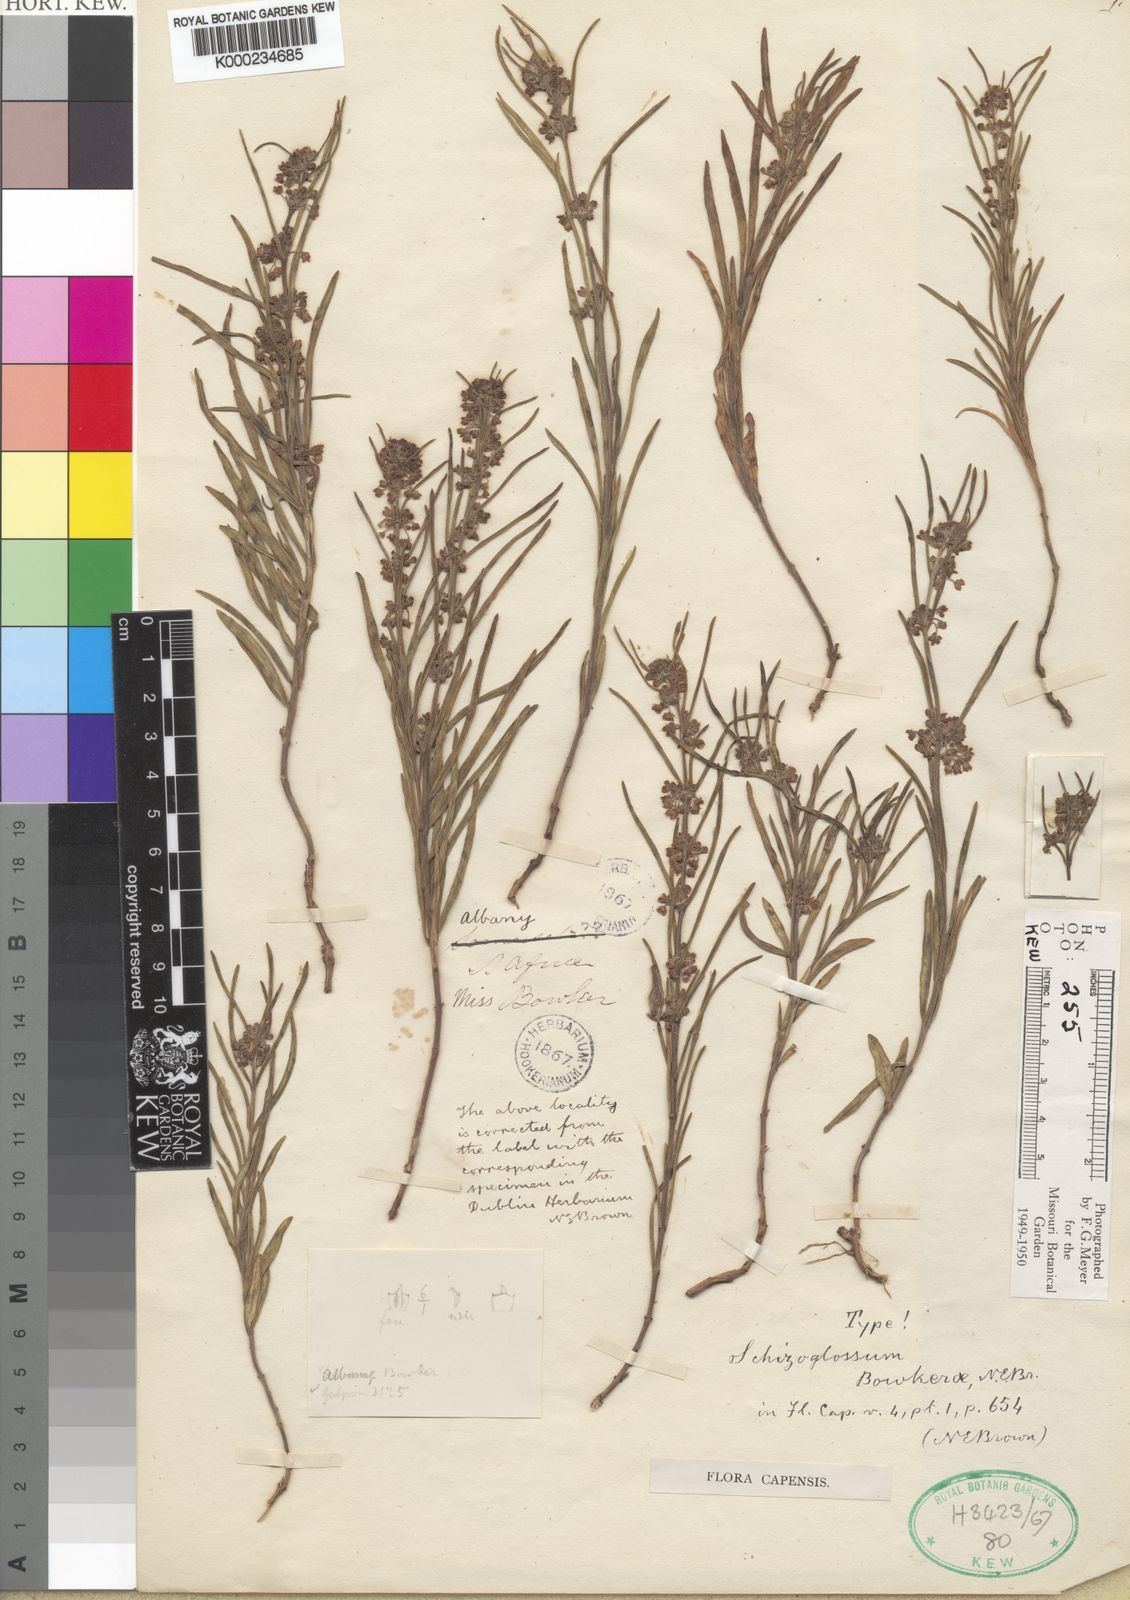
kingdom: Plantae
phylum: Tracheophyta
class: Magnoliopsida
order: Gentianales
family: Apocynaceae
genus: Aspidoglossum
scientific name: Aspidoglossum gracile
